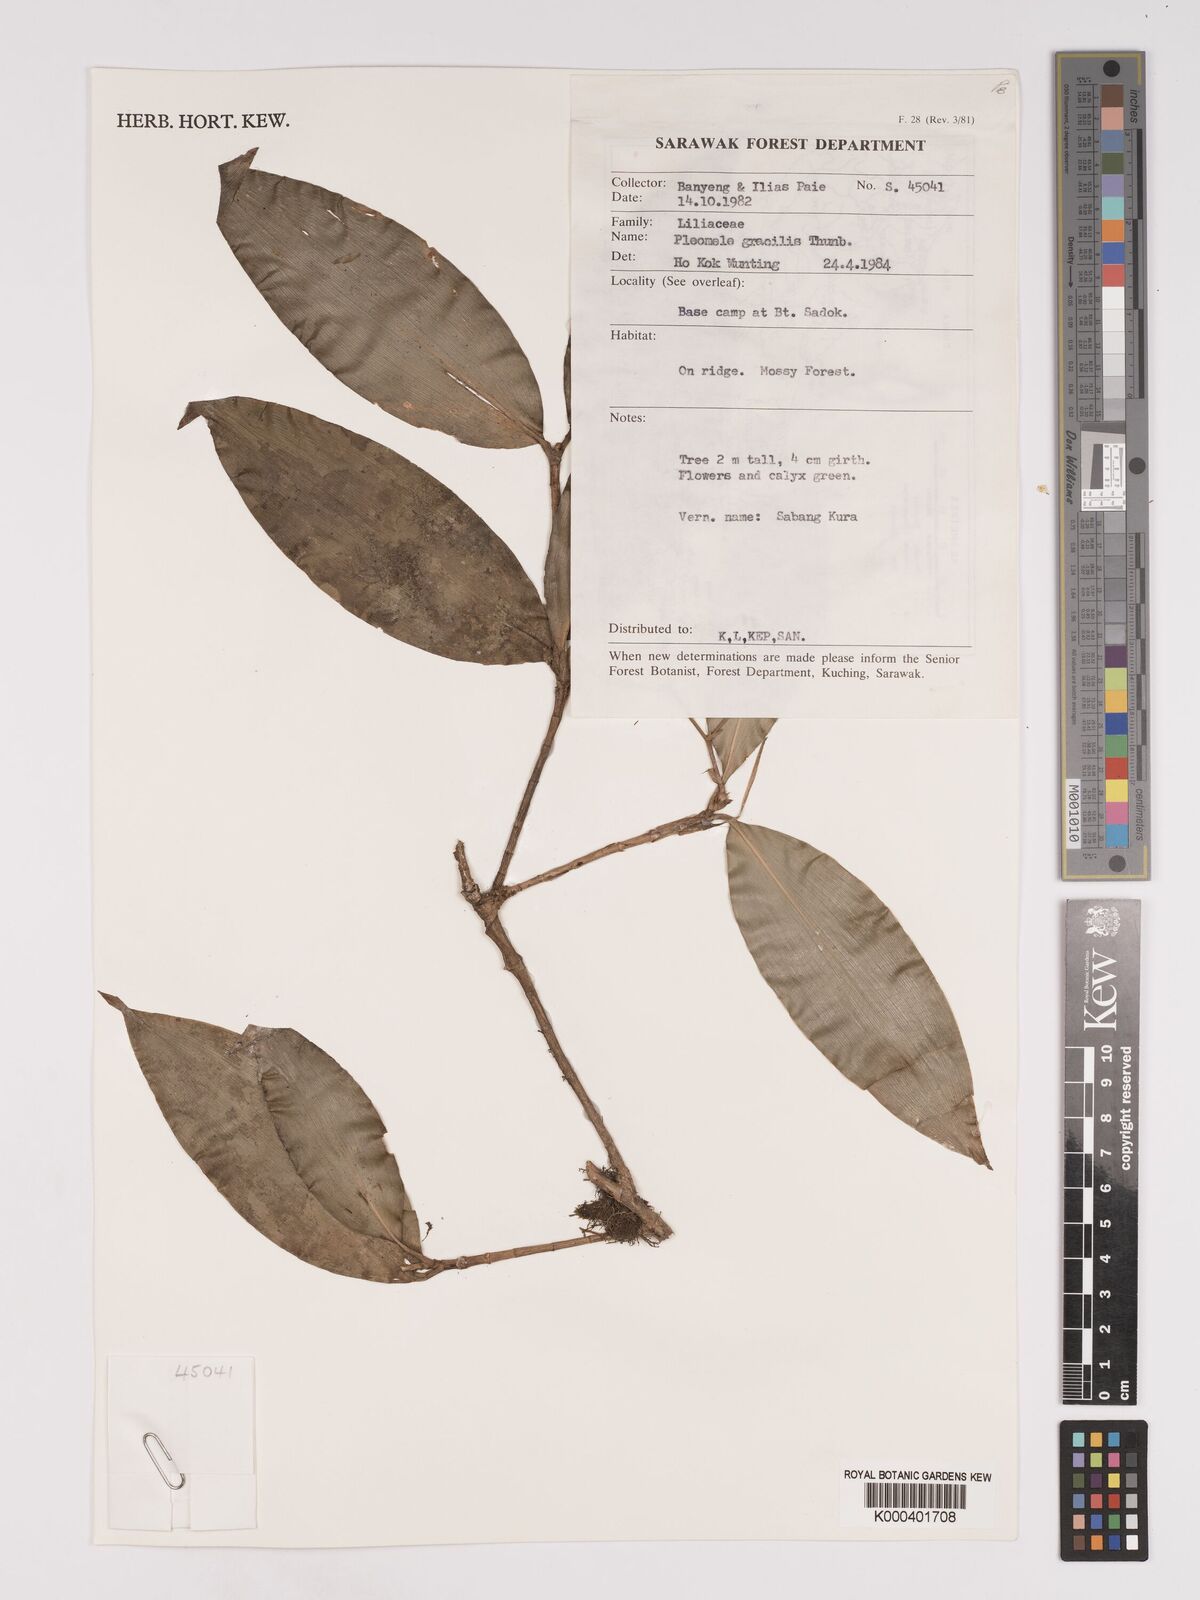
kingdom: Plantae
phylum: Tracheophyta
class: Liliopsida
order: Asparagales
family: Asparagaceae
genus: Dracaena
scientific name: Dracaena elliptica
